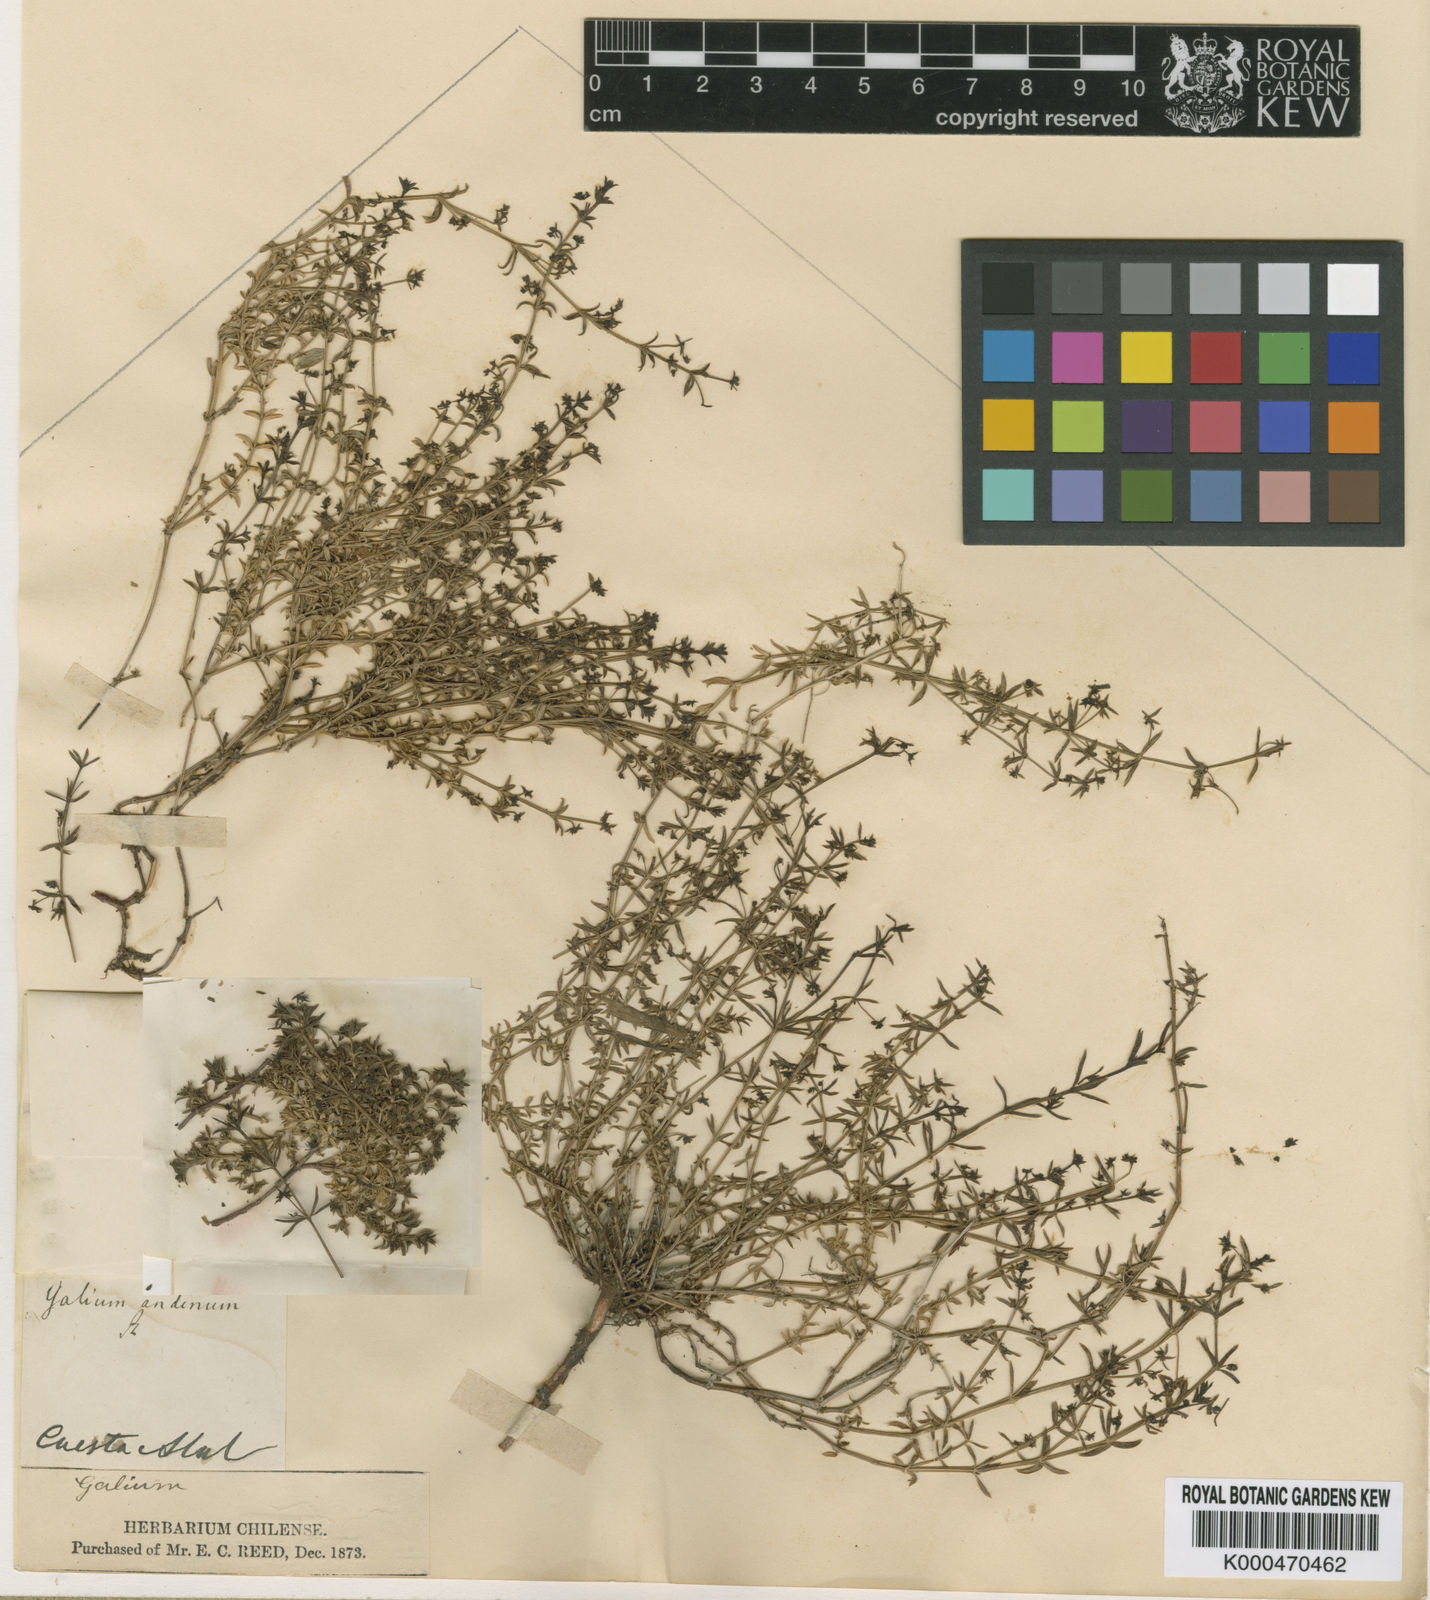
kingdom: Plantae
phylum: Tracheophyta
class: Magnoliopsida
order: Gentianales
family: Rubiaceae
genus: Galium
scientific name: Galium
